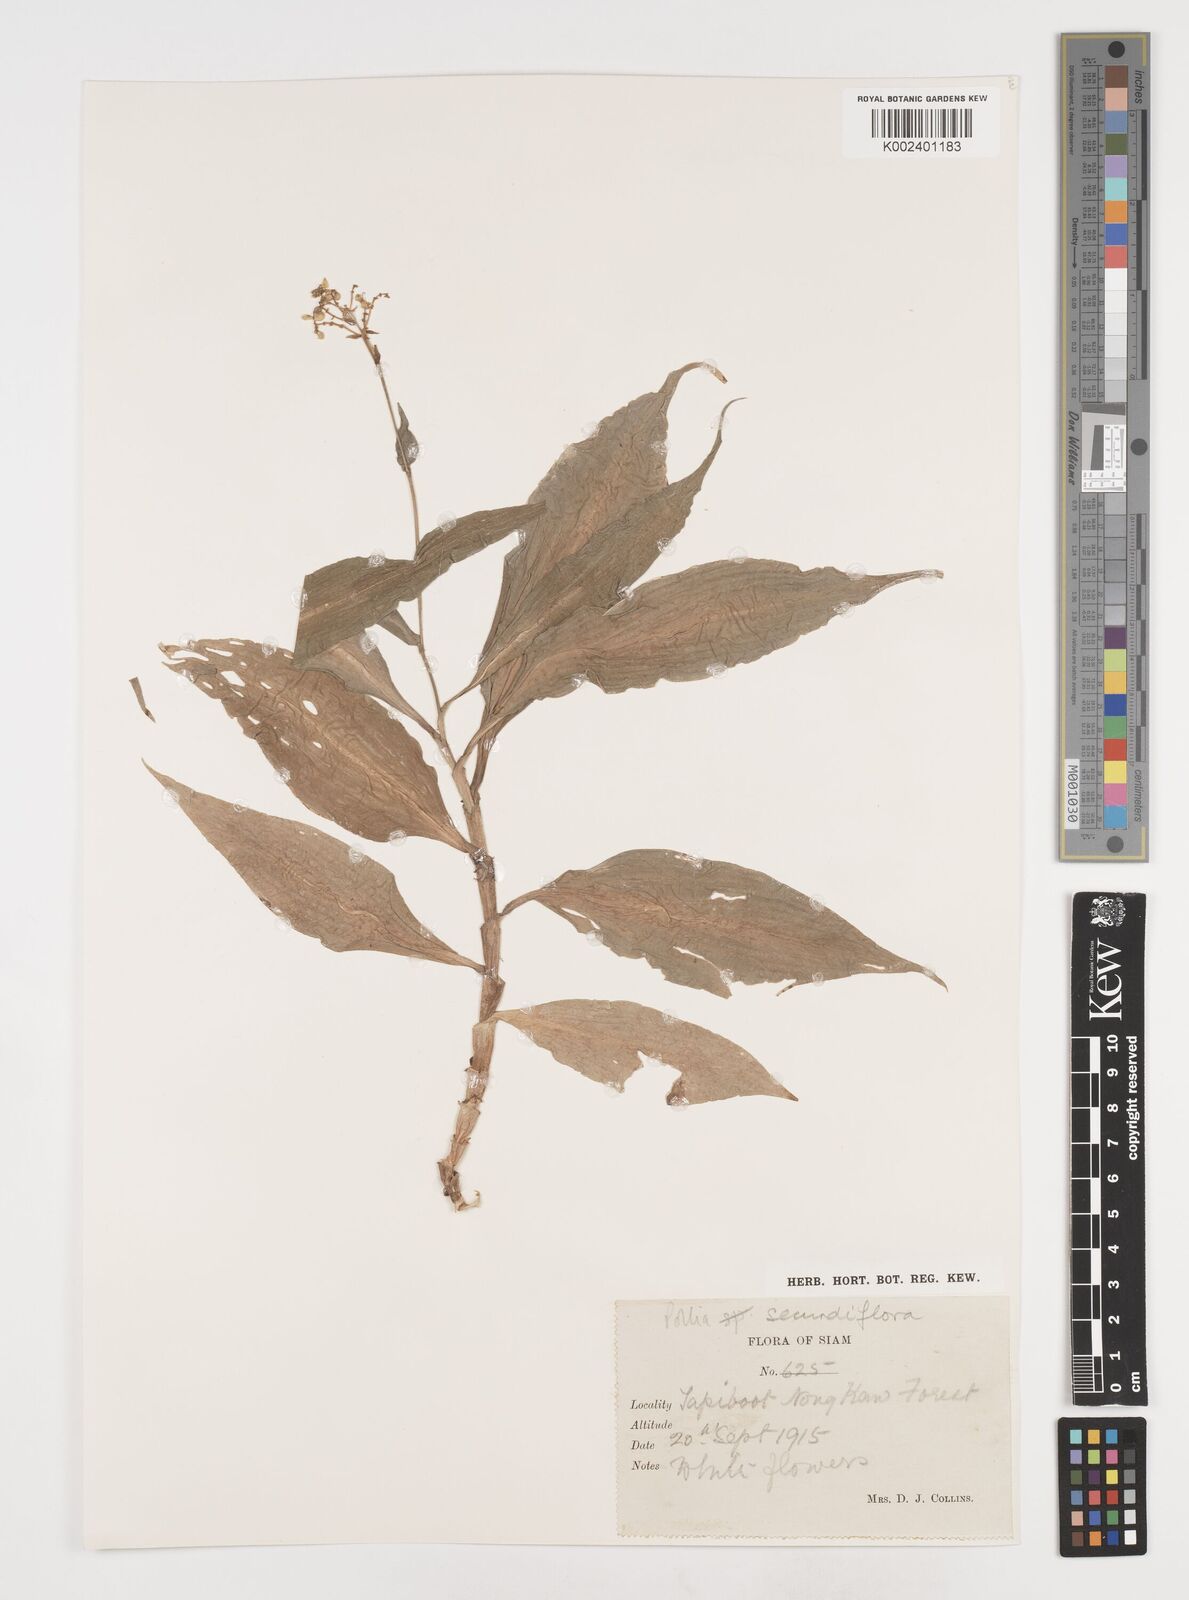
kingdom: Plantae
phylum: Tracheophyta
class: Liliopsida
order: Commelinales
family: Commelinaceae
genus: Pollia
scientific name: Pollia secundiflora
